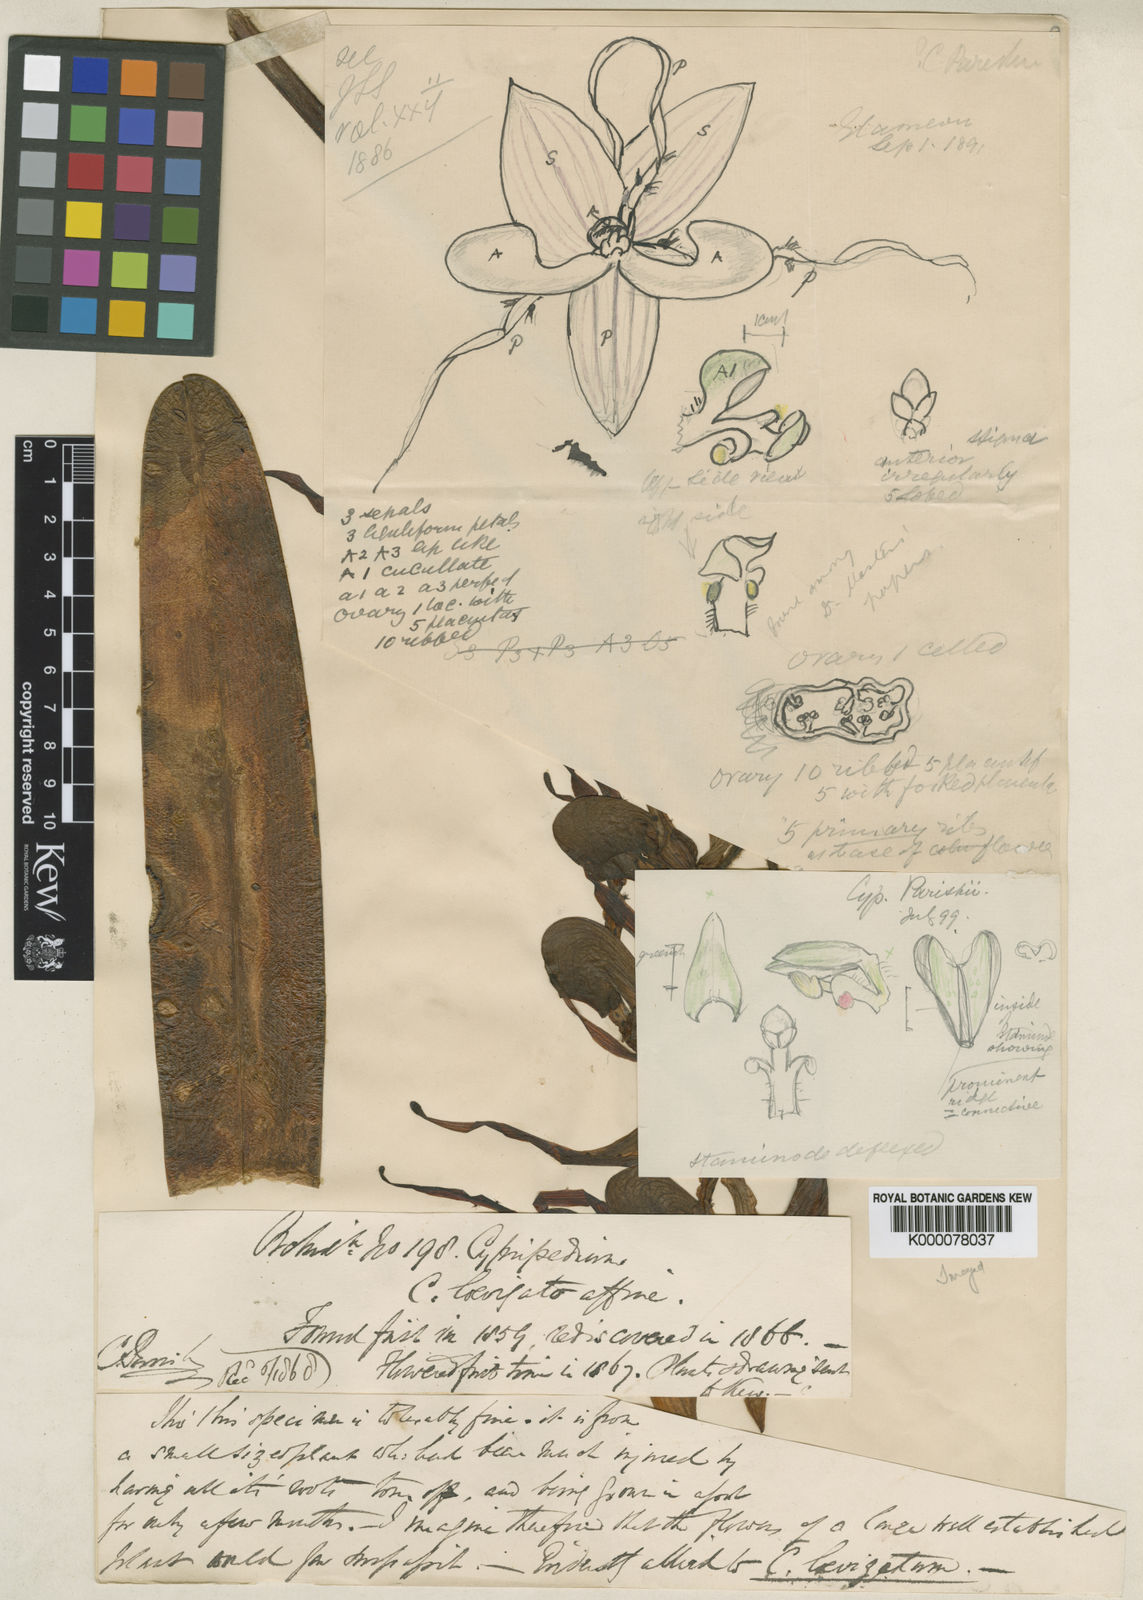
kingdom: Plantae
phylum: Tracheophyta
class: Liliopsida
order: Asparagales
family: Orchidaceae
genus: Paphiopedilum
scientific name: Paphiopedilum parishii
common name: Parish's paphiopedilum
